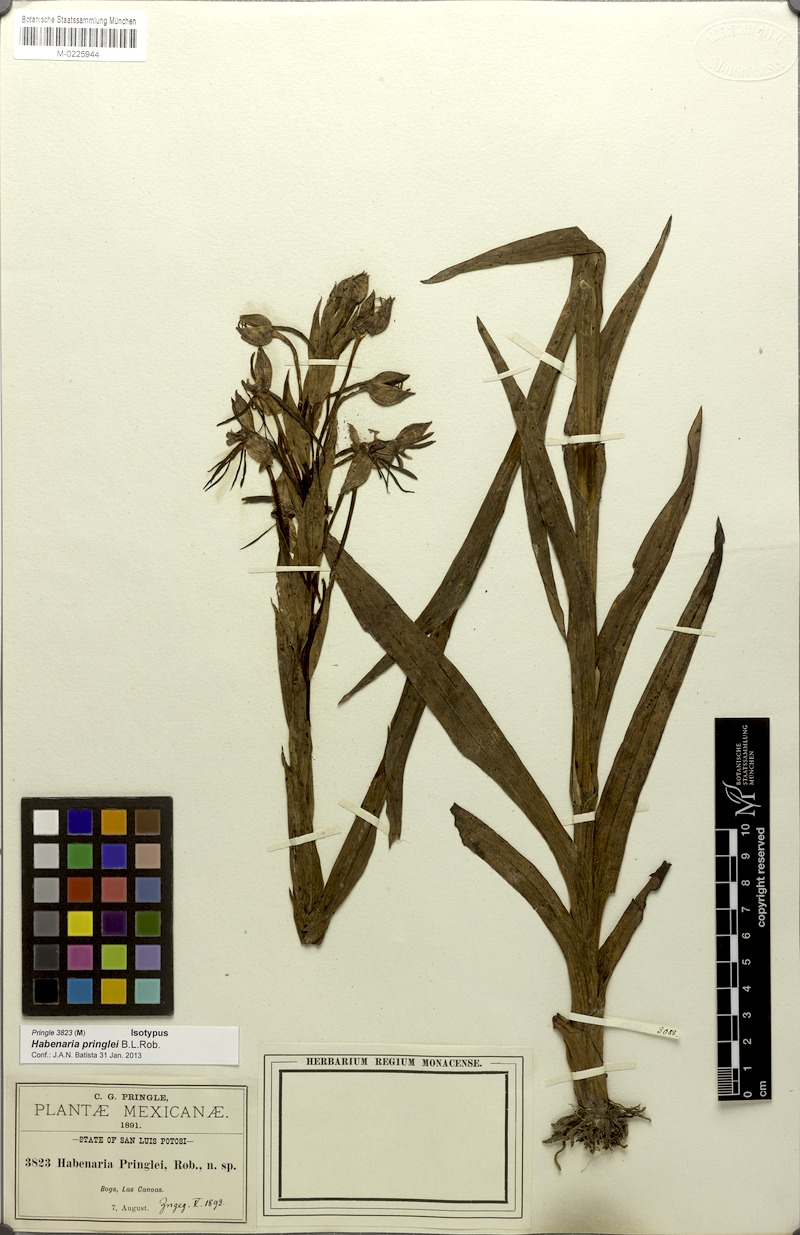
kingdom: Plantae
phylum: Tracheophyta
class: Liliopsida
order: Asparagales
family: Orchidaceae
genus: Habenaria
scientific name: Habenaria pringlei
